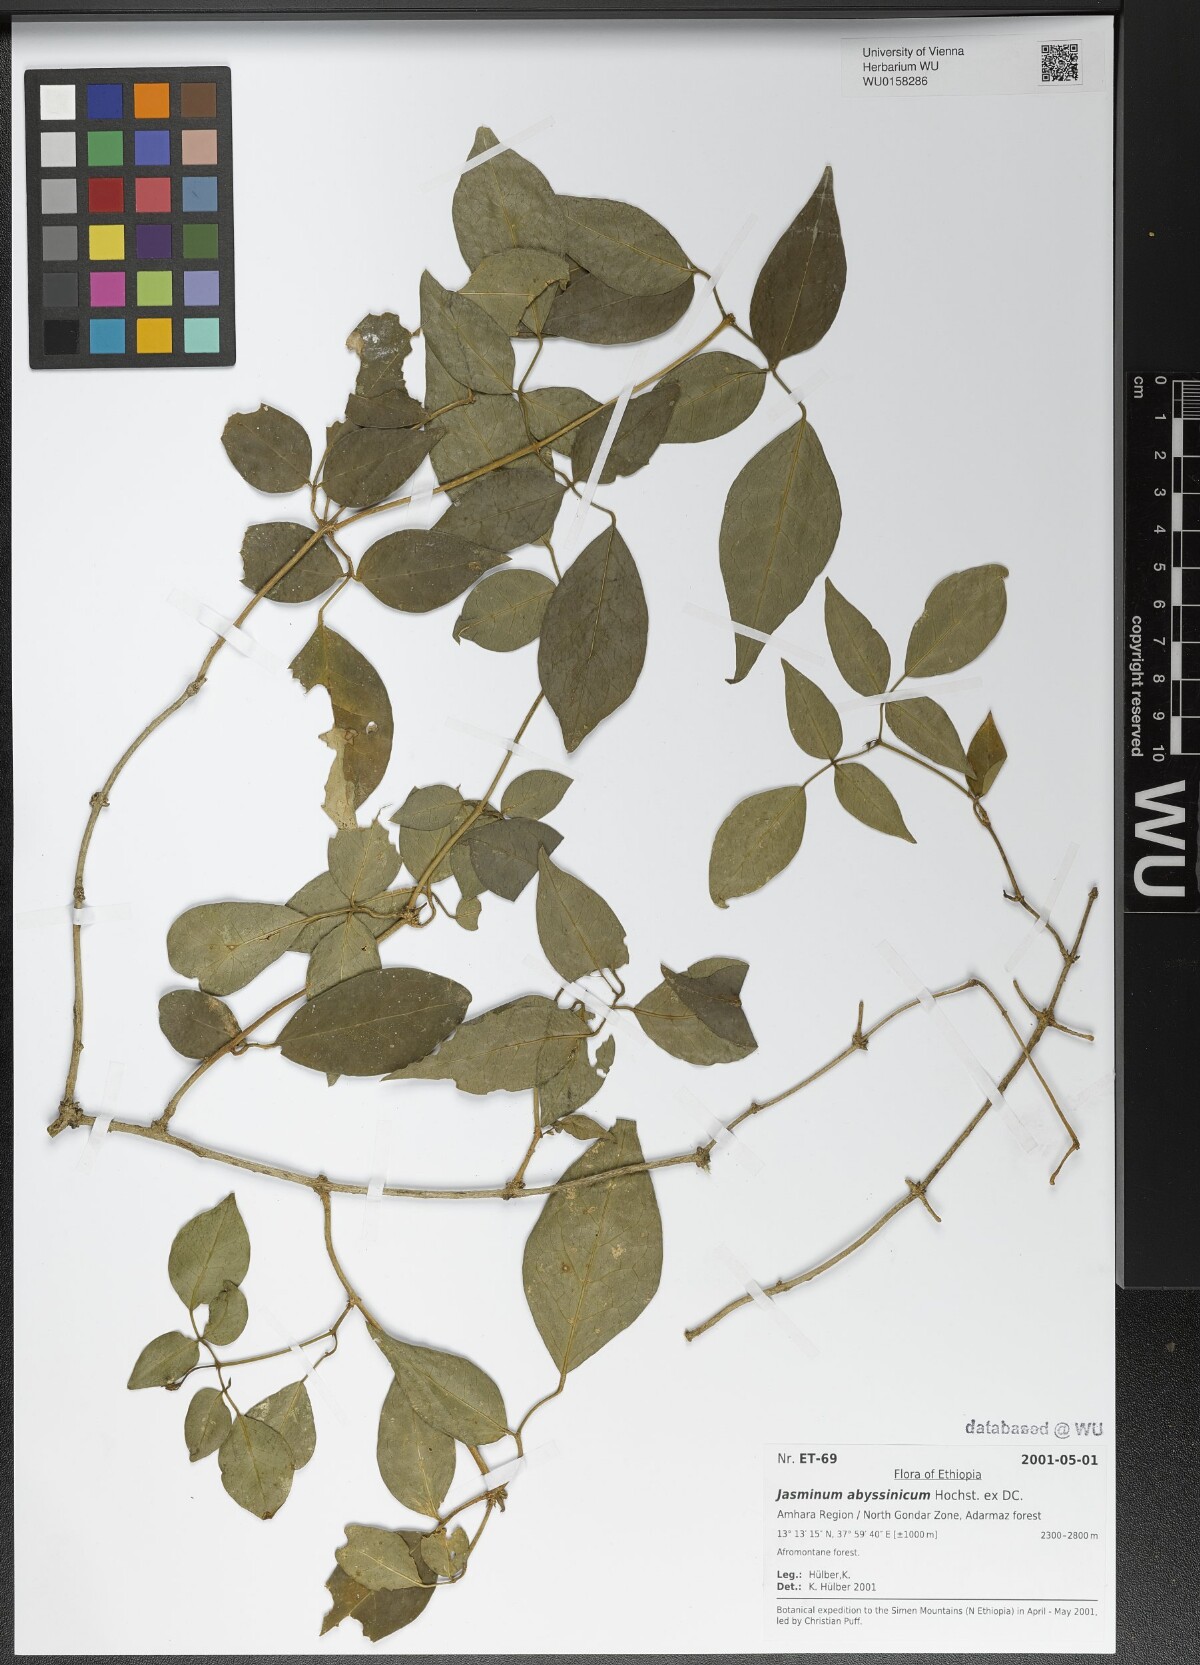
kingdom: Plantae
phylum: Tracheophyta
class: Magnoliopsida
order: Lamiales
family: Oleaceae
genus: Jasminum
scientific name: Jasminum abyssinicum
